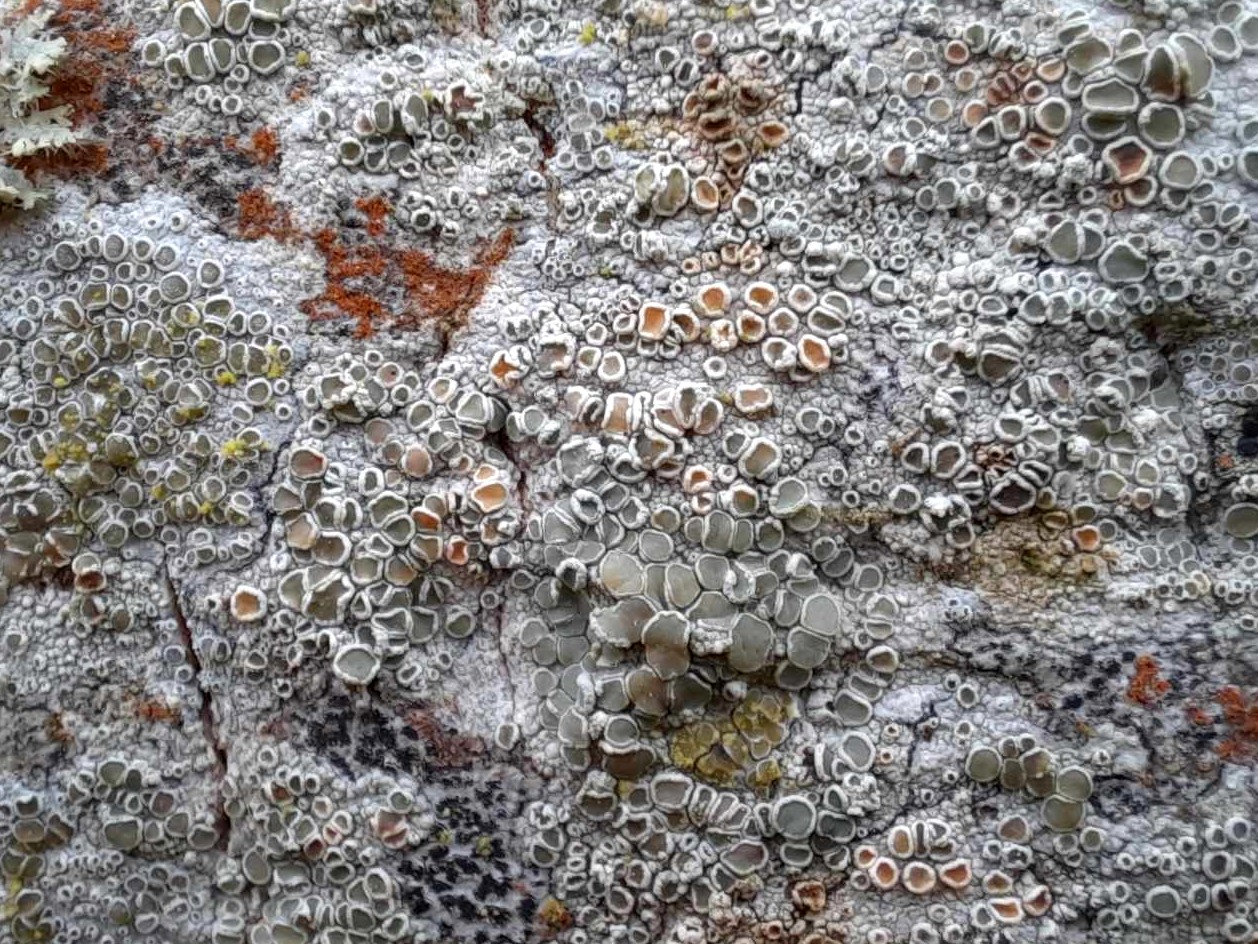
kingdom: Fungi
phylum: Ascomycota
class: Lecanoromycetes
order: Lecanorales
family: Lecanoraceae
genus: Lecanora
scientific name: Lecanora chlarotera
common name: brun kantskivelav
